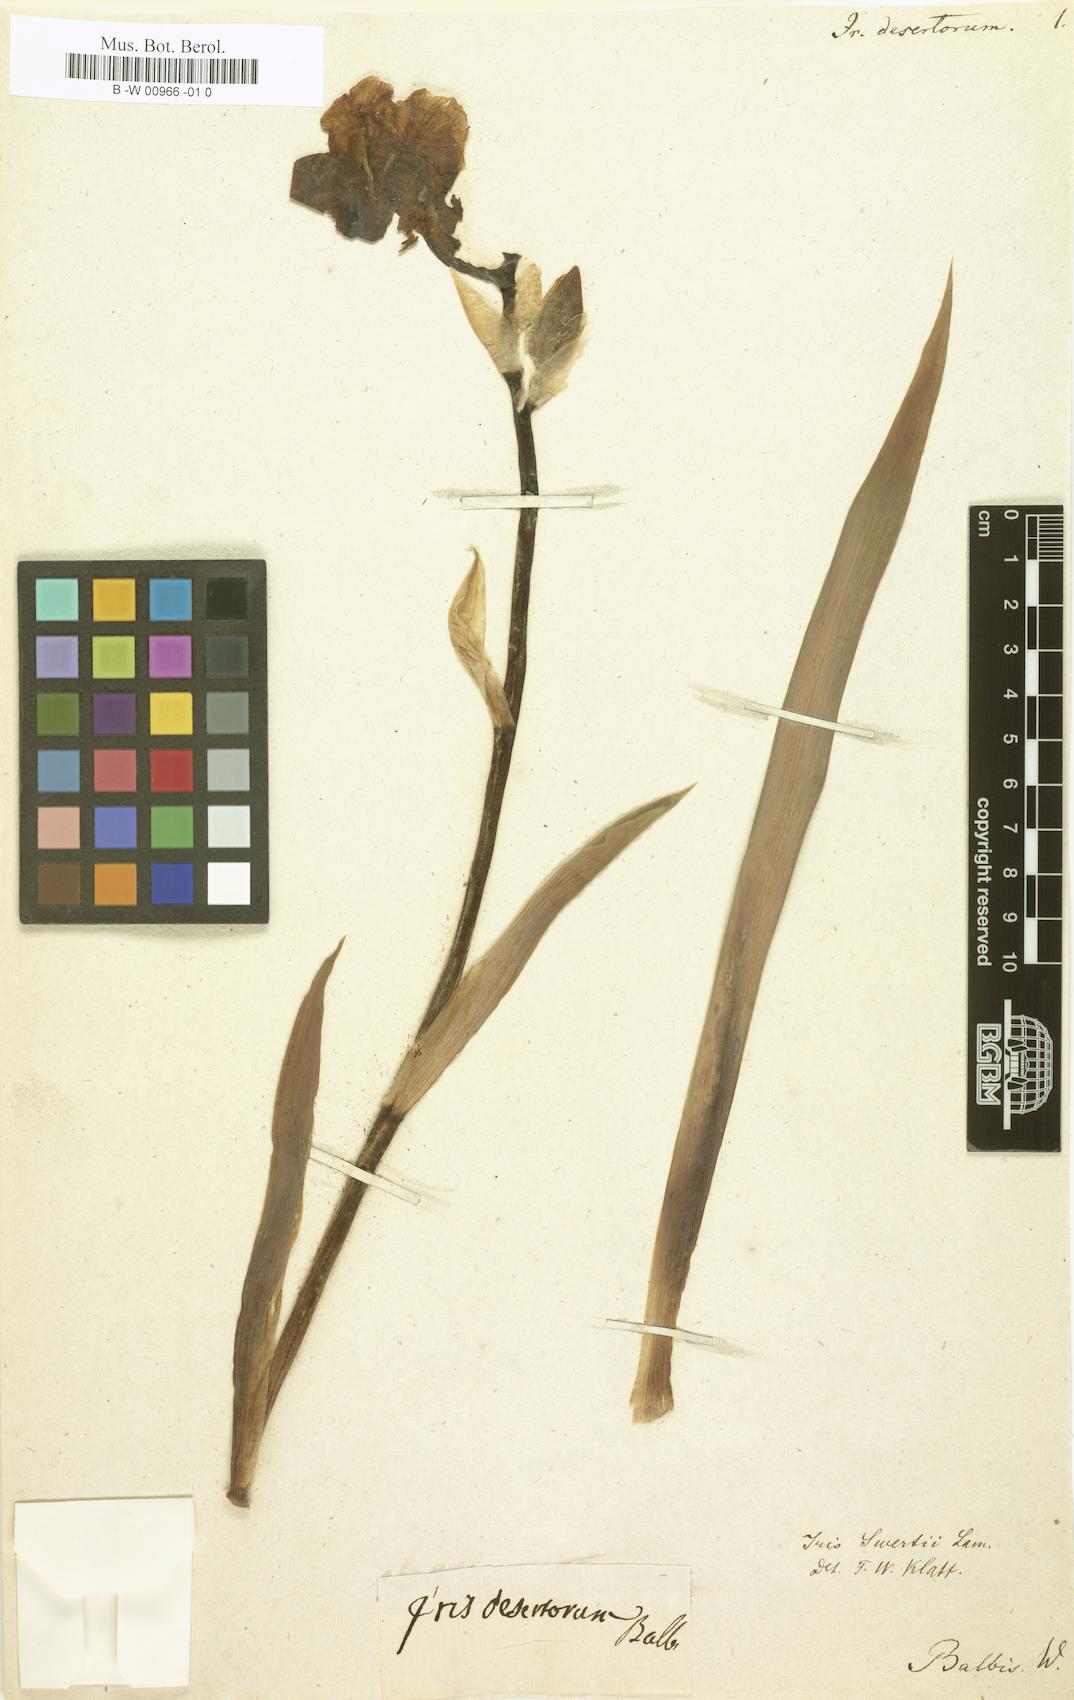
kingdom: Plantae
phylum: Tracheophyta
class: Liliopsida
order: Asparagales
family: Iridaceae
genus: Iris
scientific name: Iris halophila
